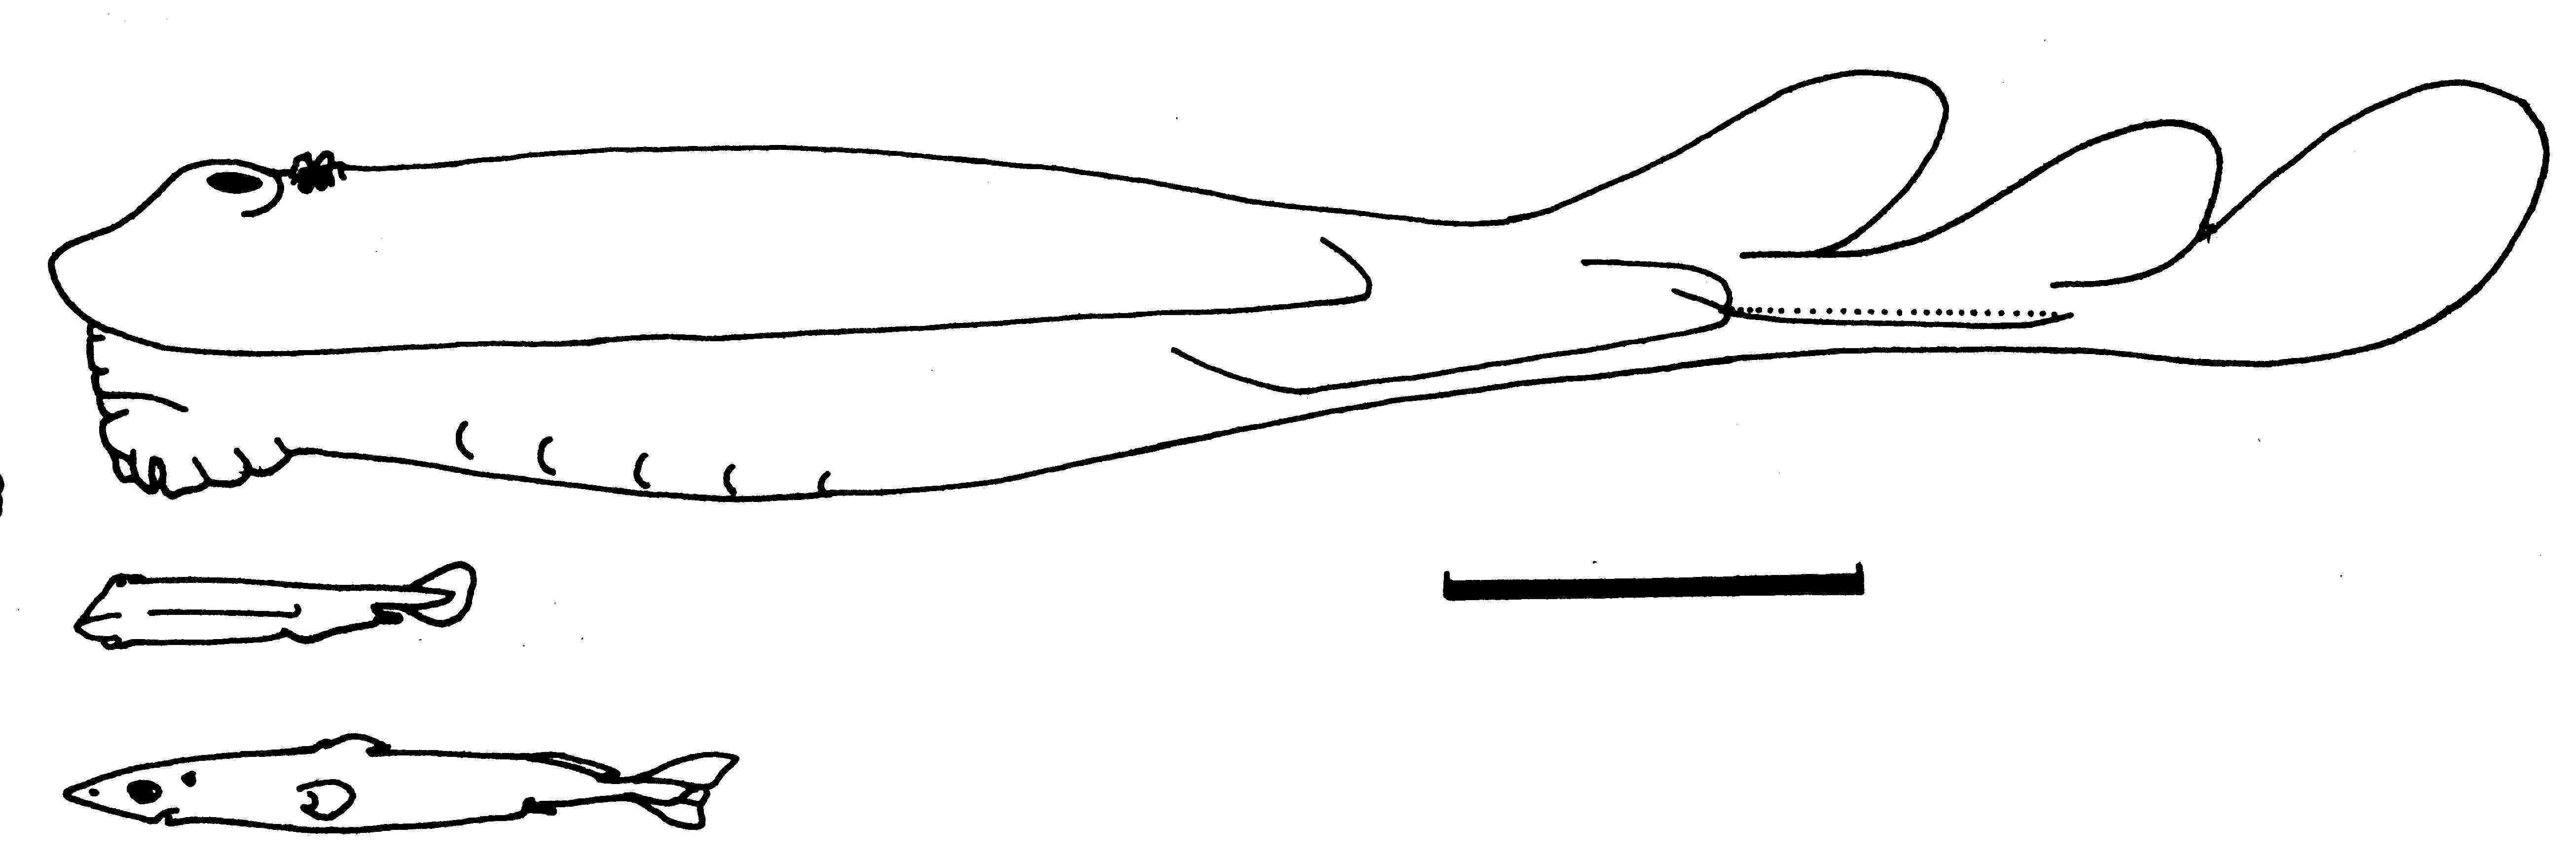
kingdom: Animalia
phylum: Chordata
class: Elasmobranchii
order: Torpediniformes
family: Narkidae
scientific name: Narkidae
